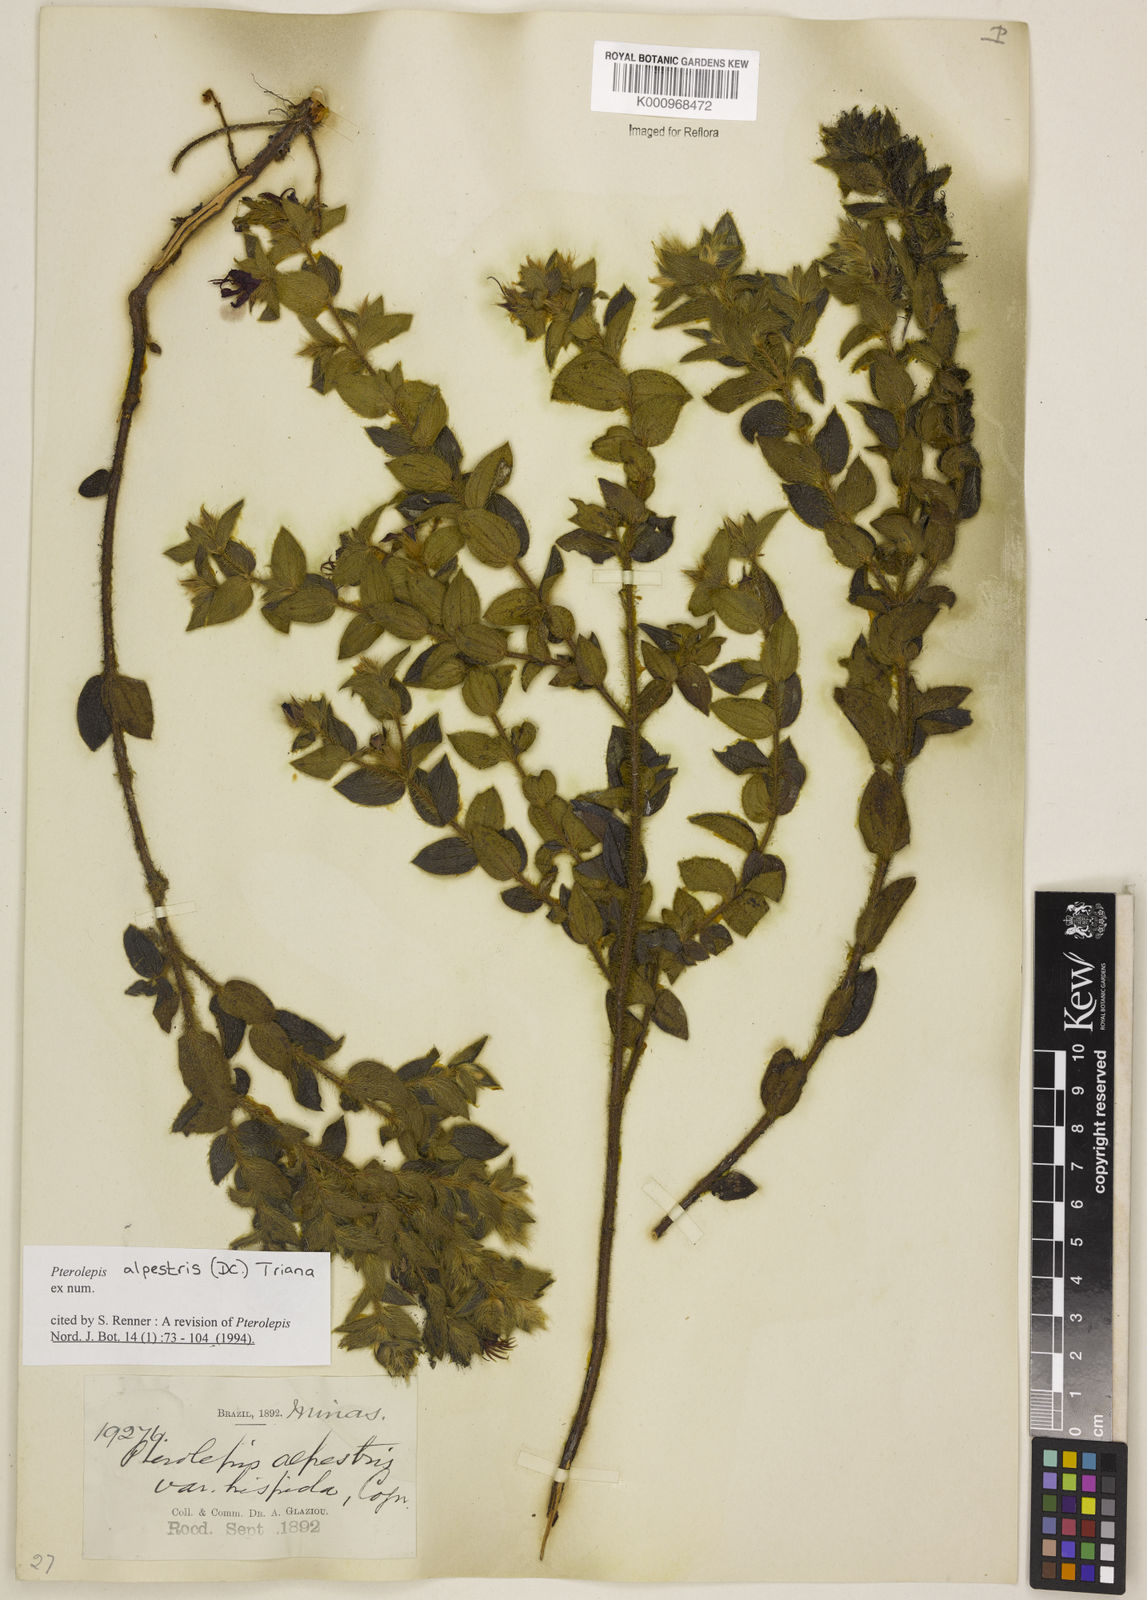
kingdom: Plantae
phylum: Tracheophyta
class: Magnoliopsida
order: Myrtales
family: Melastomataceae
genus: Pterolepis
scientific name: Pterolepis alpestris
